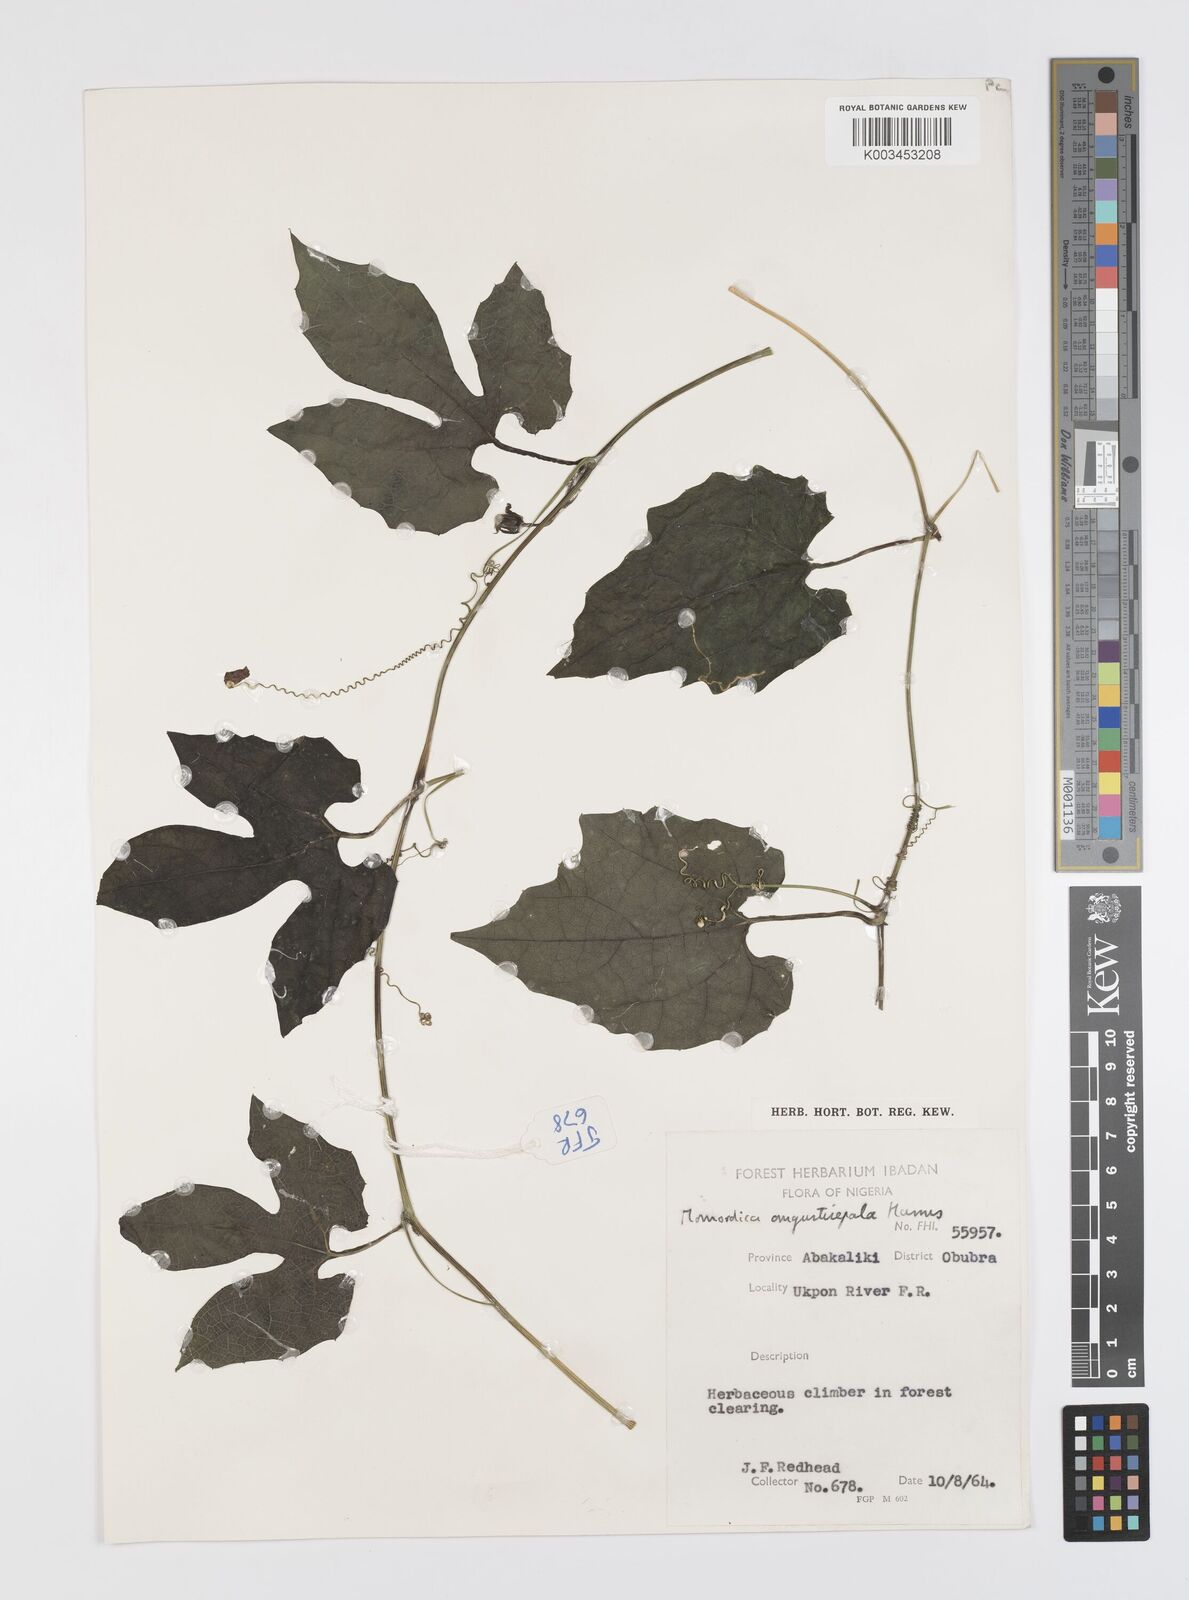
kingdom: Plantae
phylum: Tracheophyta
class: Magnoliopsida
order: Cucurbitales
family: Cucurbitaceae
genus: Momordica
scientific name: Momordica angustisepala
